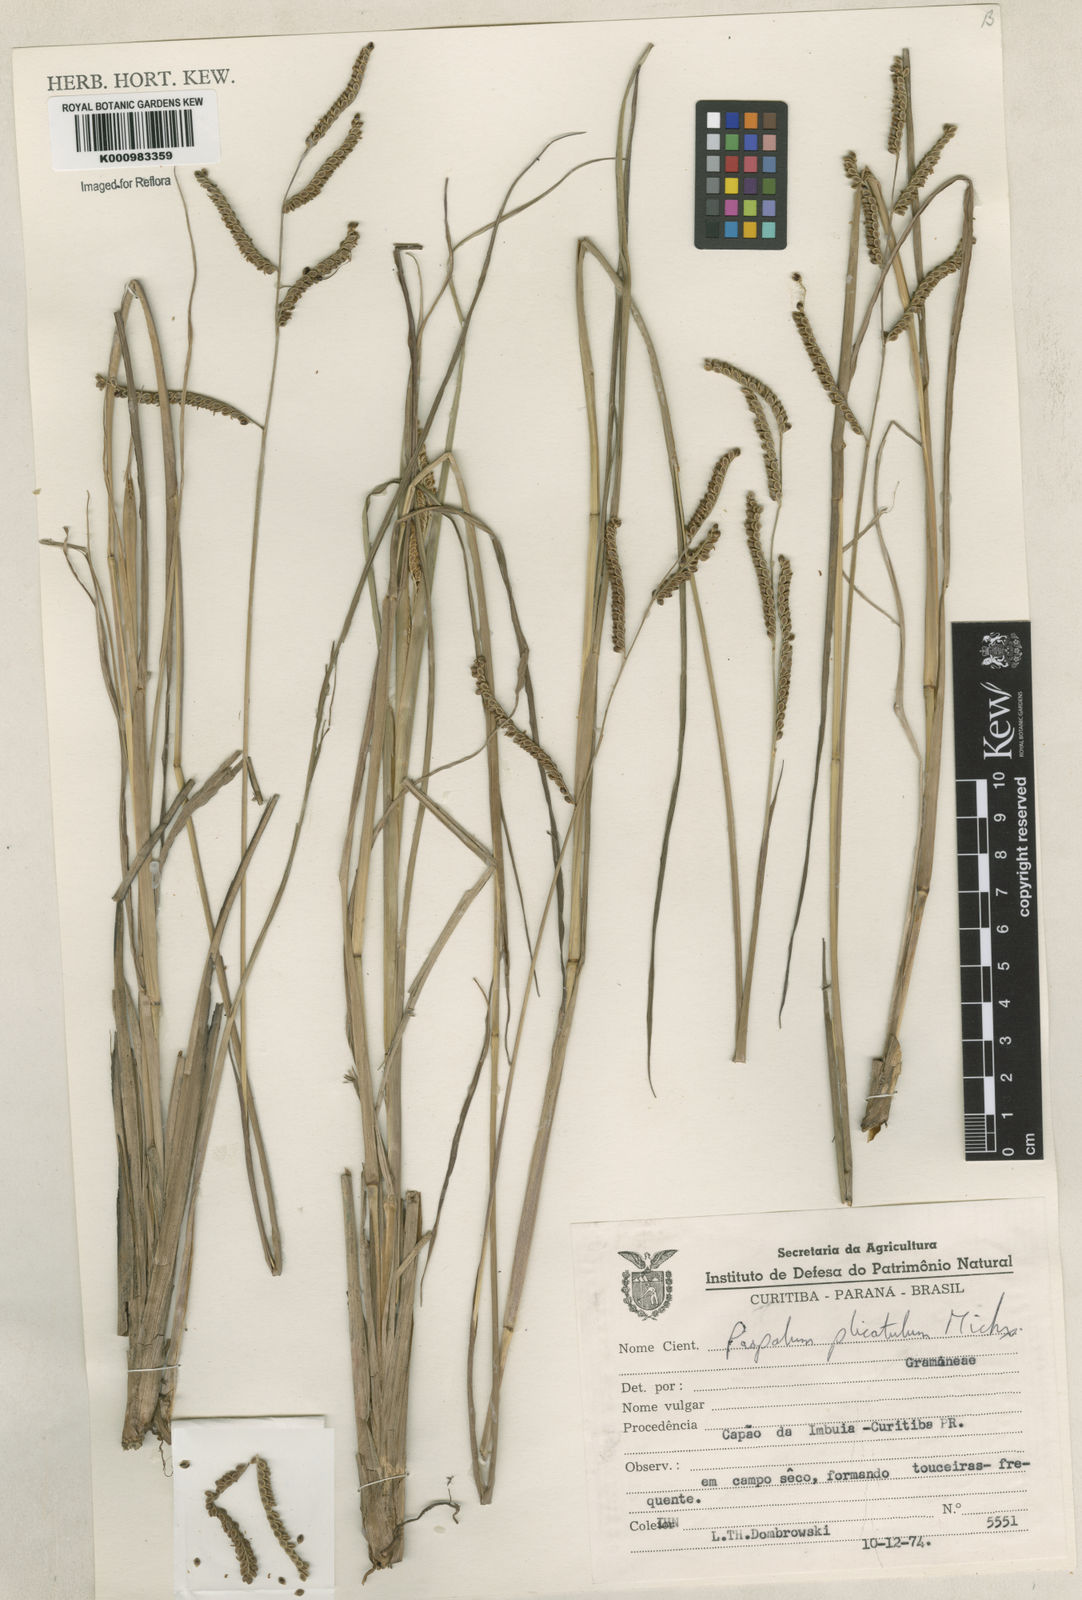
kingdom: Plantae
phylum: Tracheophyta
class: Liliopsida
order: Poales
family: Poaceae
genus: Paspalum
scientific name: Paspalum plicatulum
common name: Top paspalum
